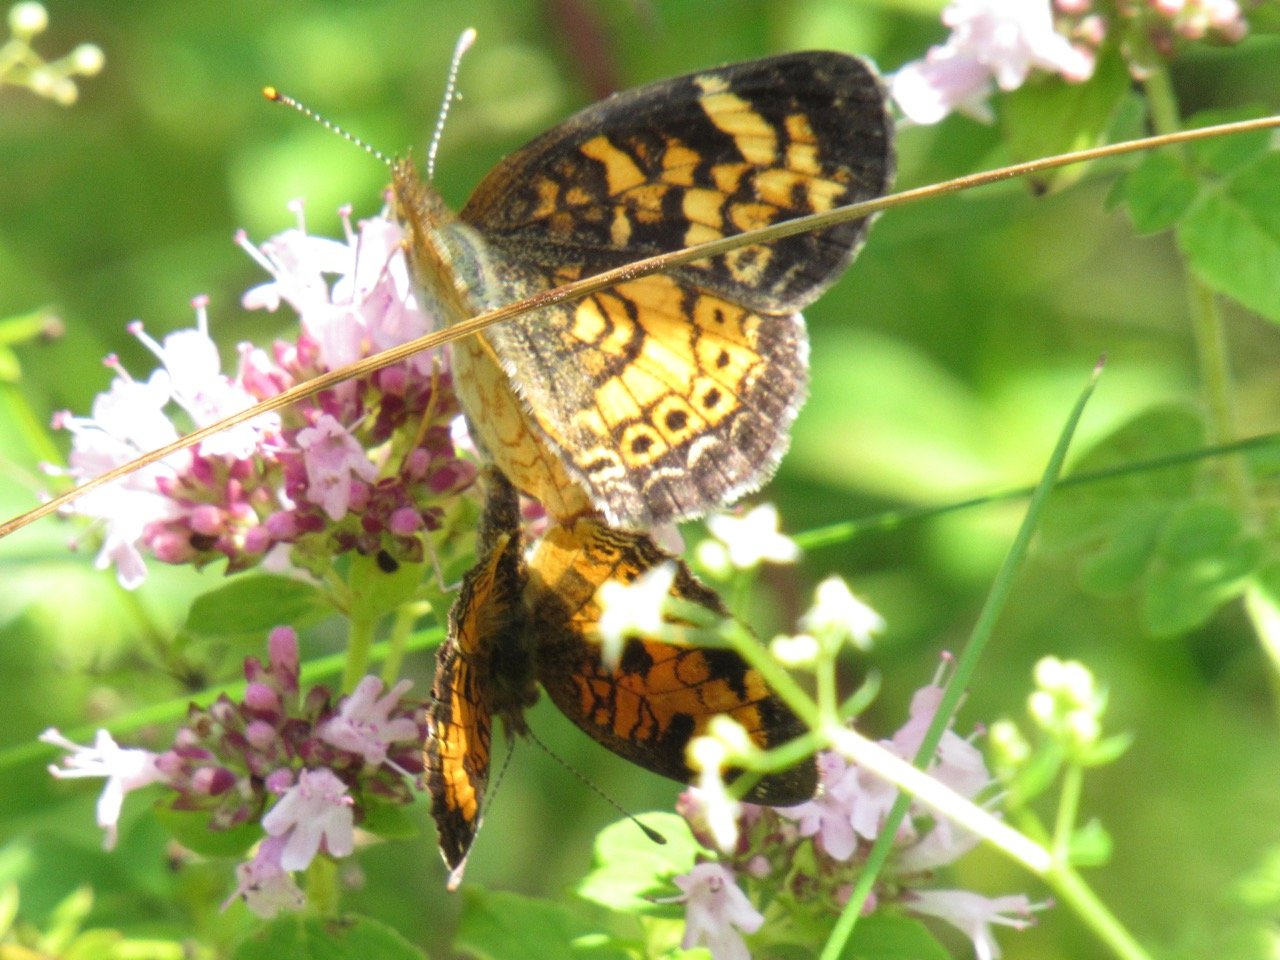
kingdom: Animalia
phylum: Arthropoda
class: Insecta
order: Lepidoptera
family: Nymphalidae
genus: Phyciodes
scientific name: Phyciodes tharos
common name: Pearl Crescent
